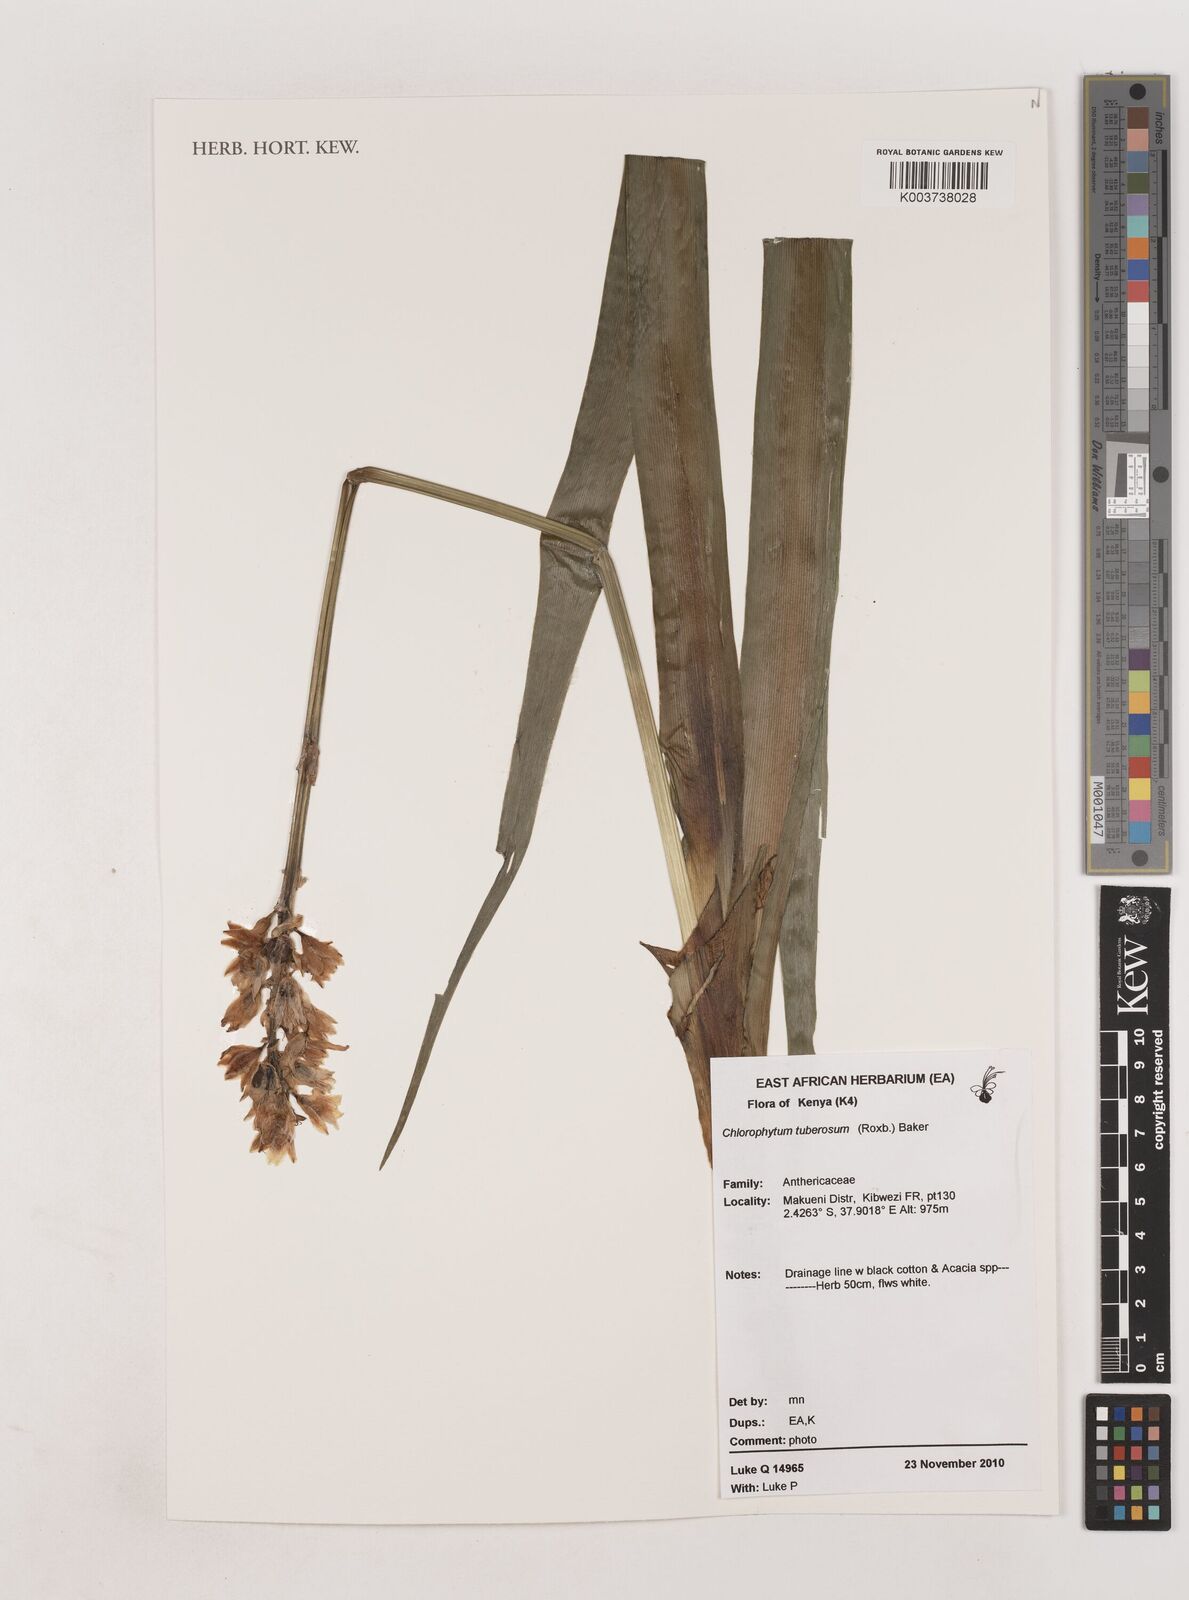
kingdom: Plantae
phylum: Tracheophyta
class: Liliopsida
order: Asparagales
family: Asparagaceae
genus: Chlorophytum
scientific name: Chlorophytum tuberosum
